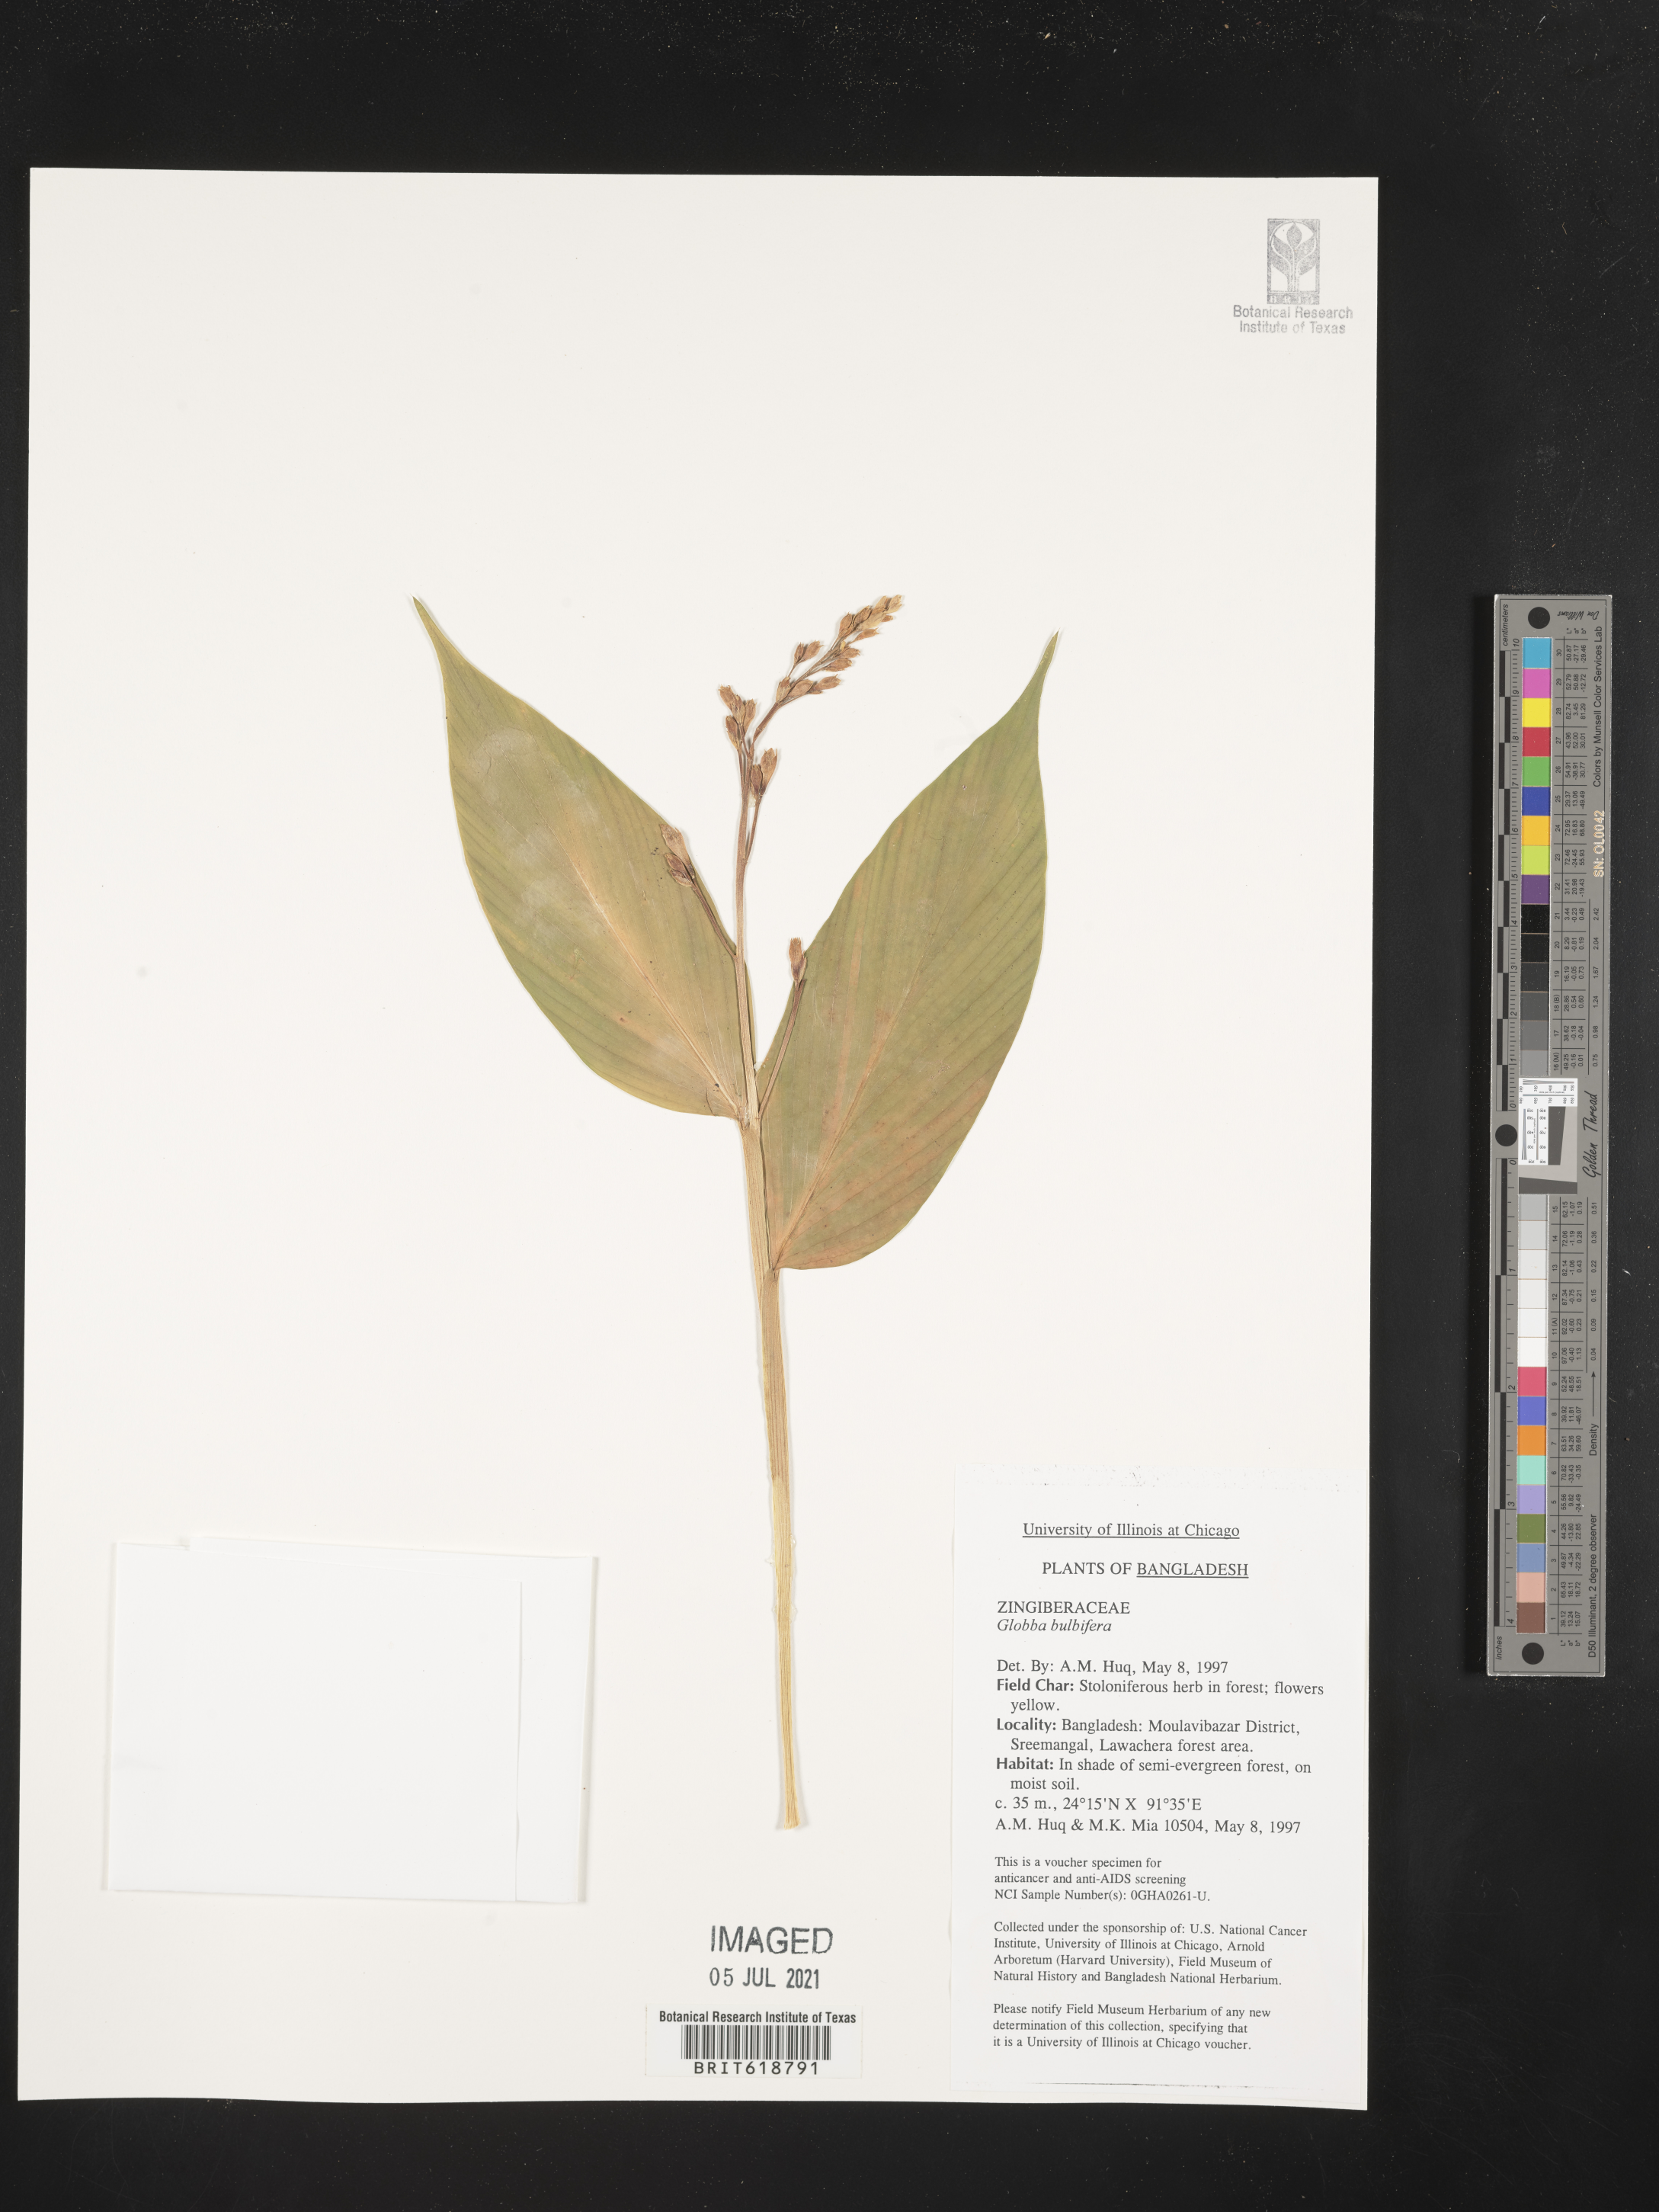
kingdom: Plantae
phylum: Tracheophyta
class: Liliopsida
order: Zingiberales
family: Zingiberaceae
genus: Globba
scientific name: Globba marantina
